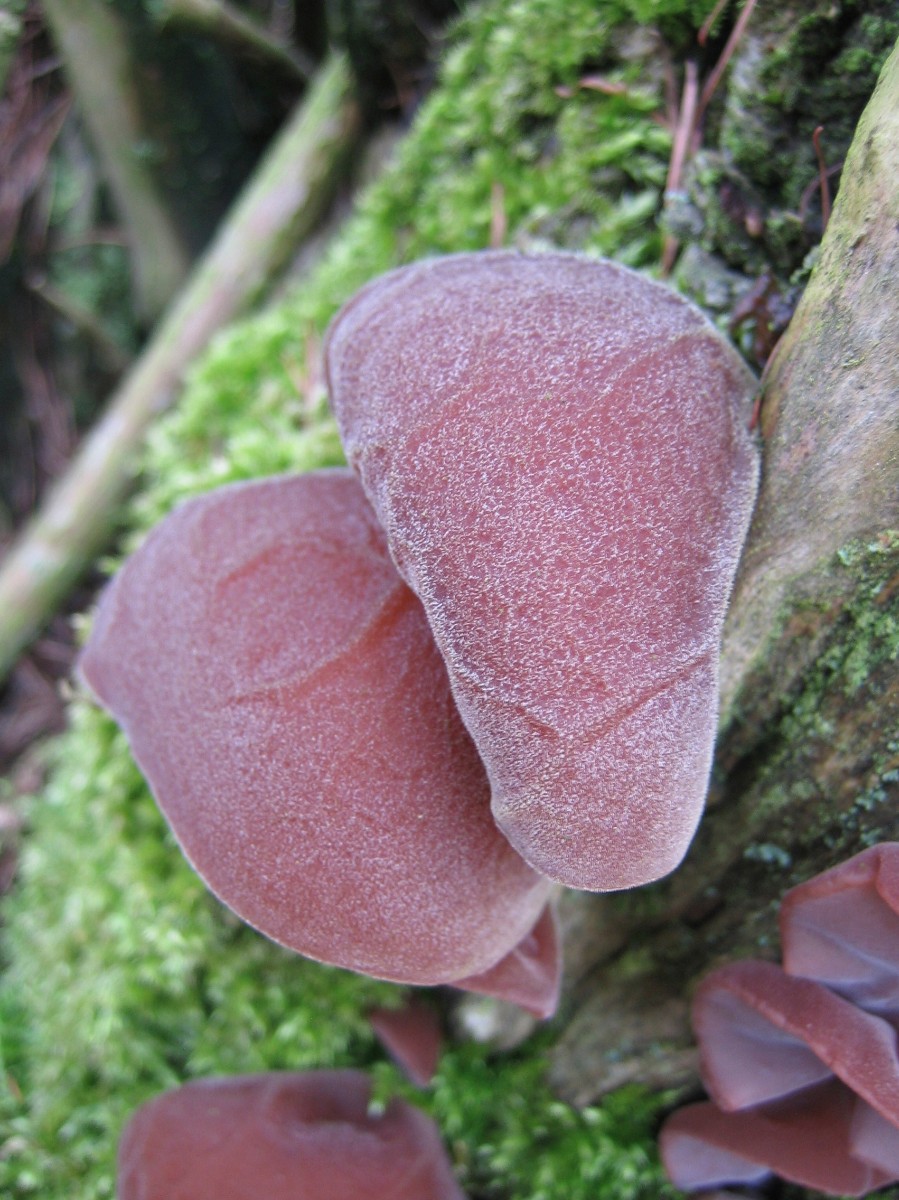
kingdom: Fungi
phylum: Basidiomycota
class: Agaricomycetes
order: Auriculariales
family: Auriculariaceae
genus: Auricularia
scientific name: Auricularia auricula-judae
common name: almindelig judasøre
